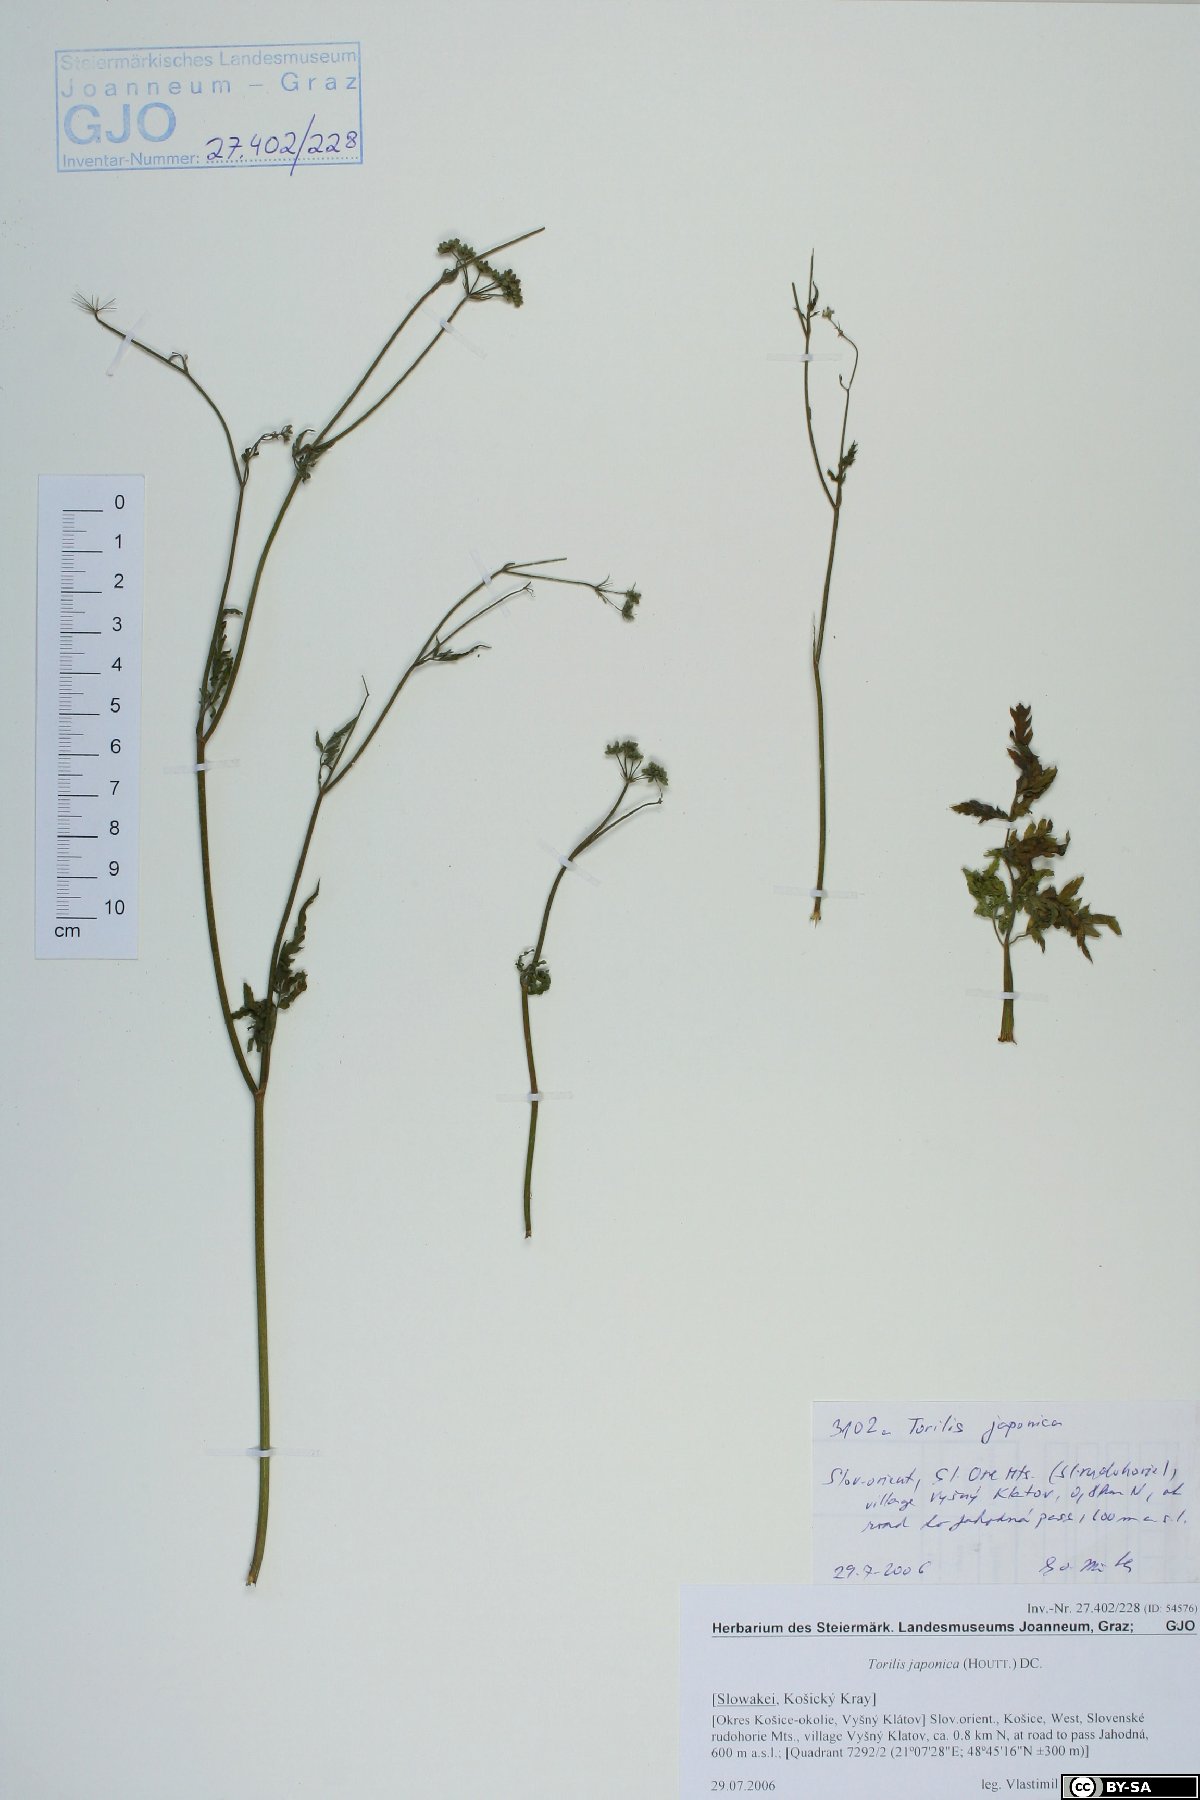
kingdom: Plantae
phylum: Tracheophyta
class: Magnoliopsida
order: Apiales
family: Apiaceae
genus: Torilis
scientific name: Torilis japonica
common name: Upright hedge-parsley
